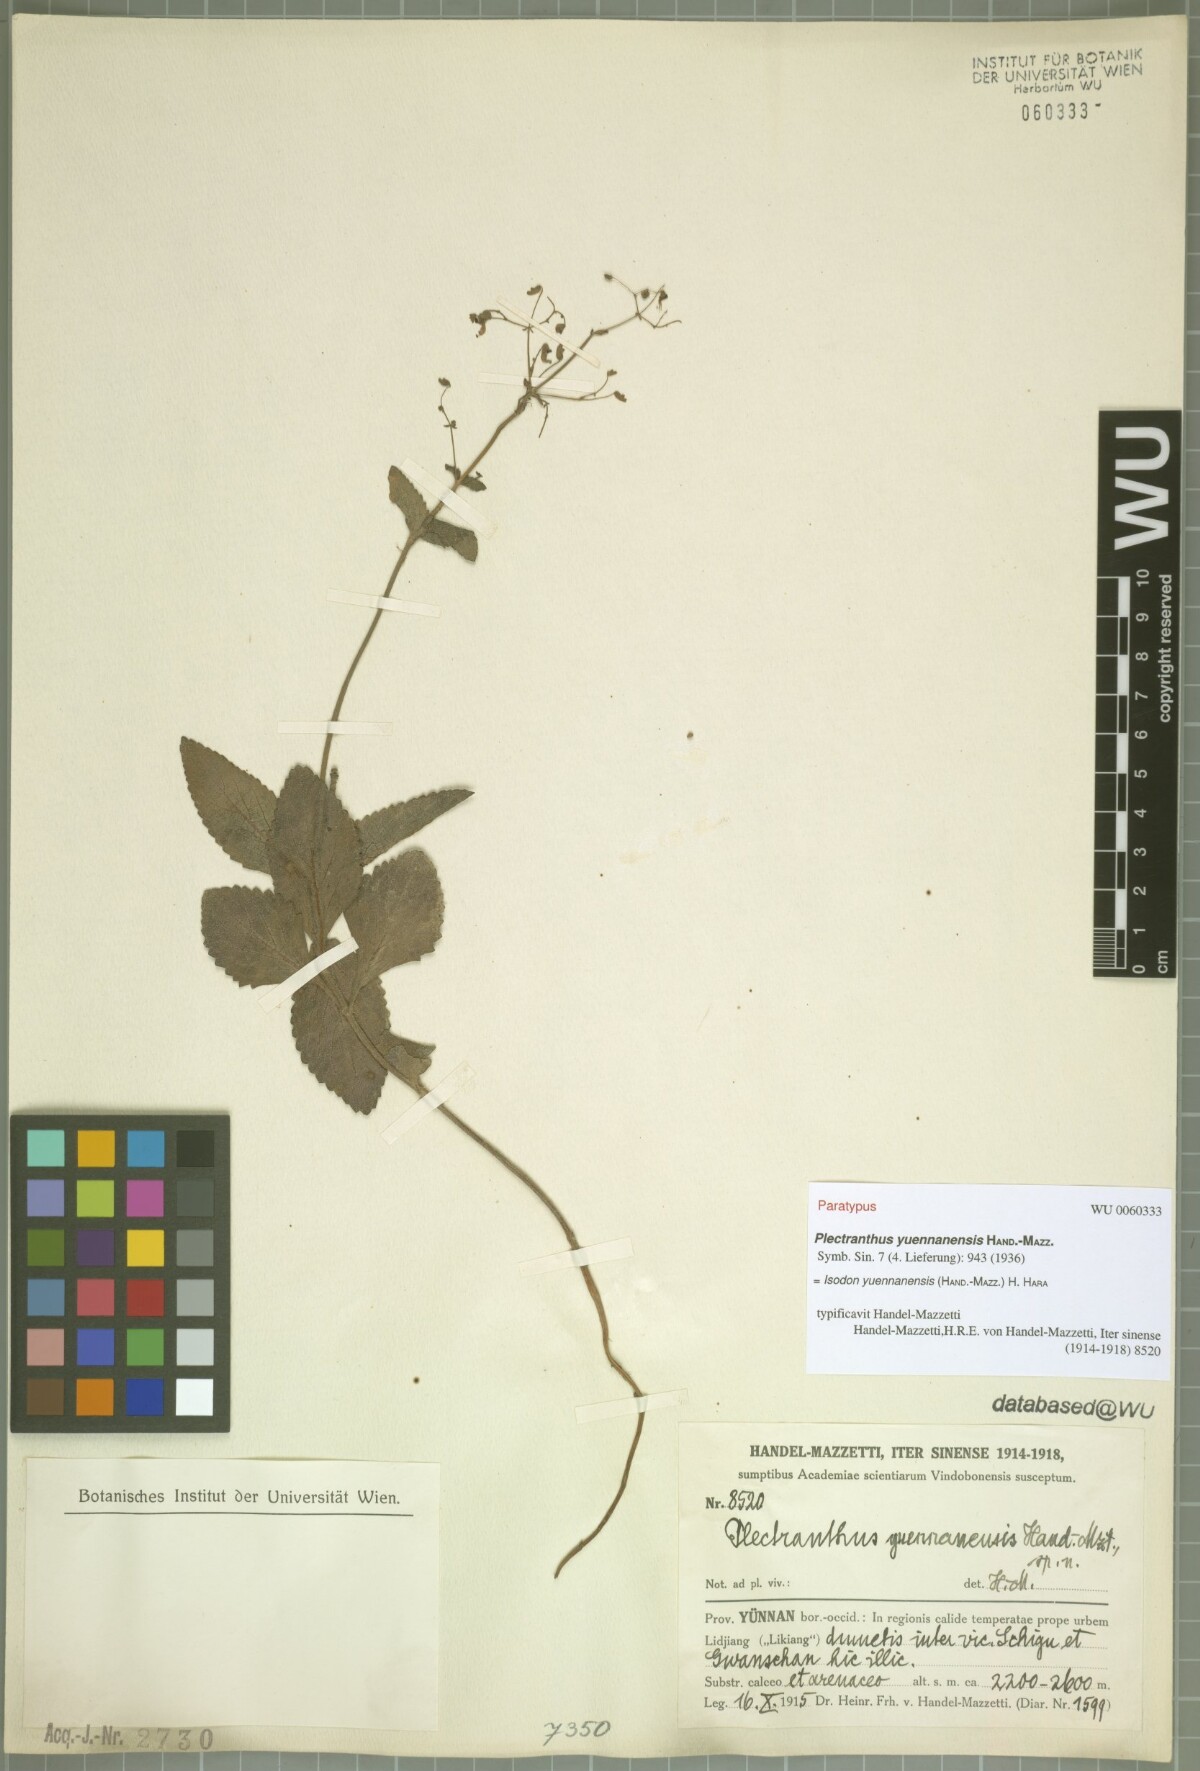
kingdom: Plantae
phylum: Tracheophyta
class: Magnoliopsida
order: Lamiales
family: Lamiaceae
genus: Isodon
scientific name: Isodon yuennanensis
